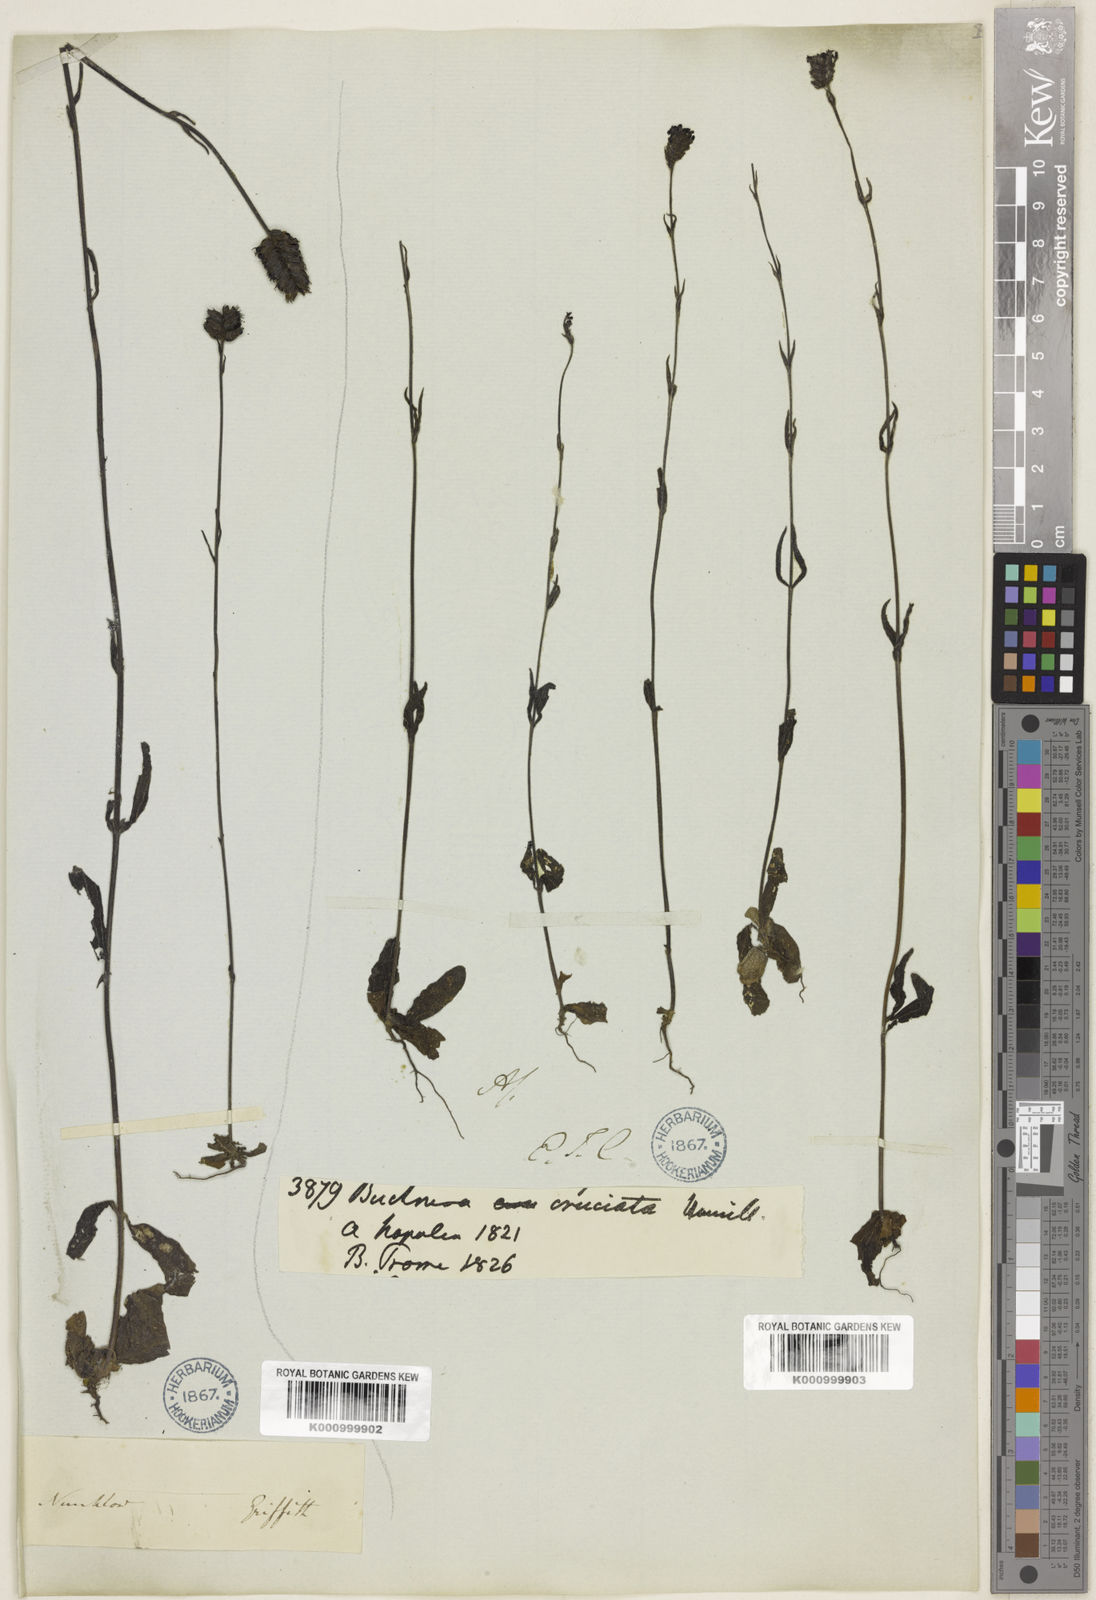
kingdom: Plantae
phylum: Tracheophyta
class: Magnoliopsida
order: Lamiales
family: Orobanchaceae
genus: Buchnera
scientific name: Buchnera cruciata
